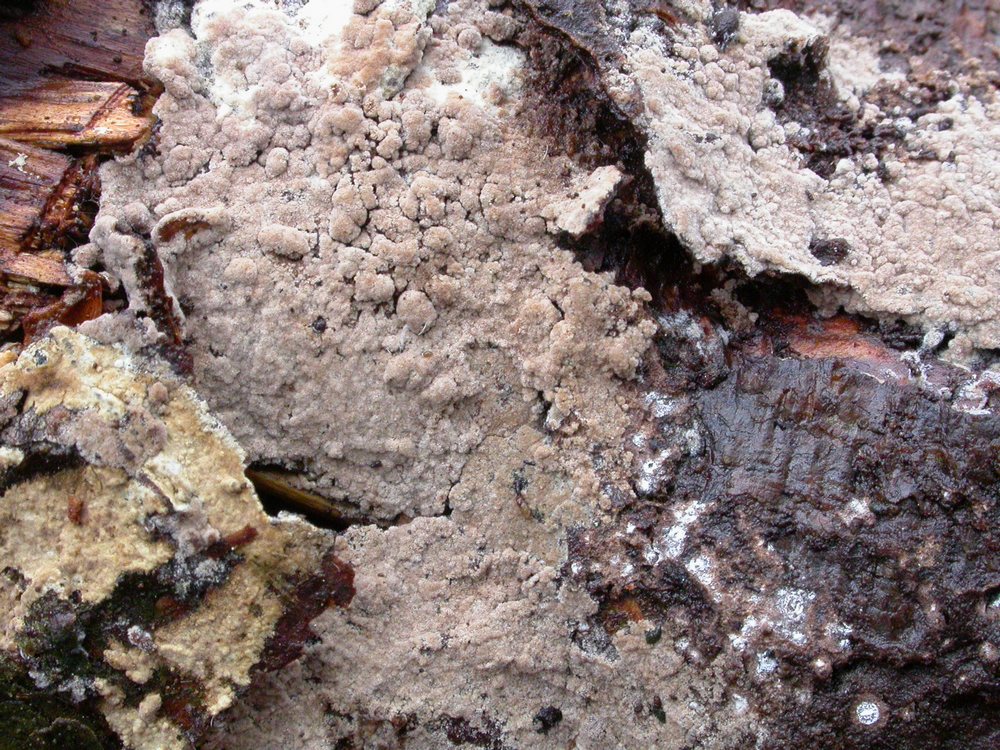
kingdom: Fungi
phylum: Basidiomycota
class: Agaricomycetes
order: Thelephorales
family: Thelephoraceae
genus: Tomentella
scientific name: Tomentella
